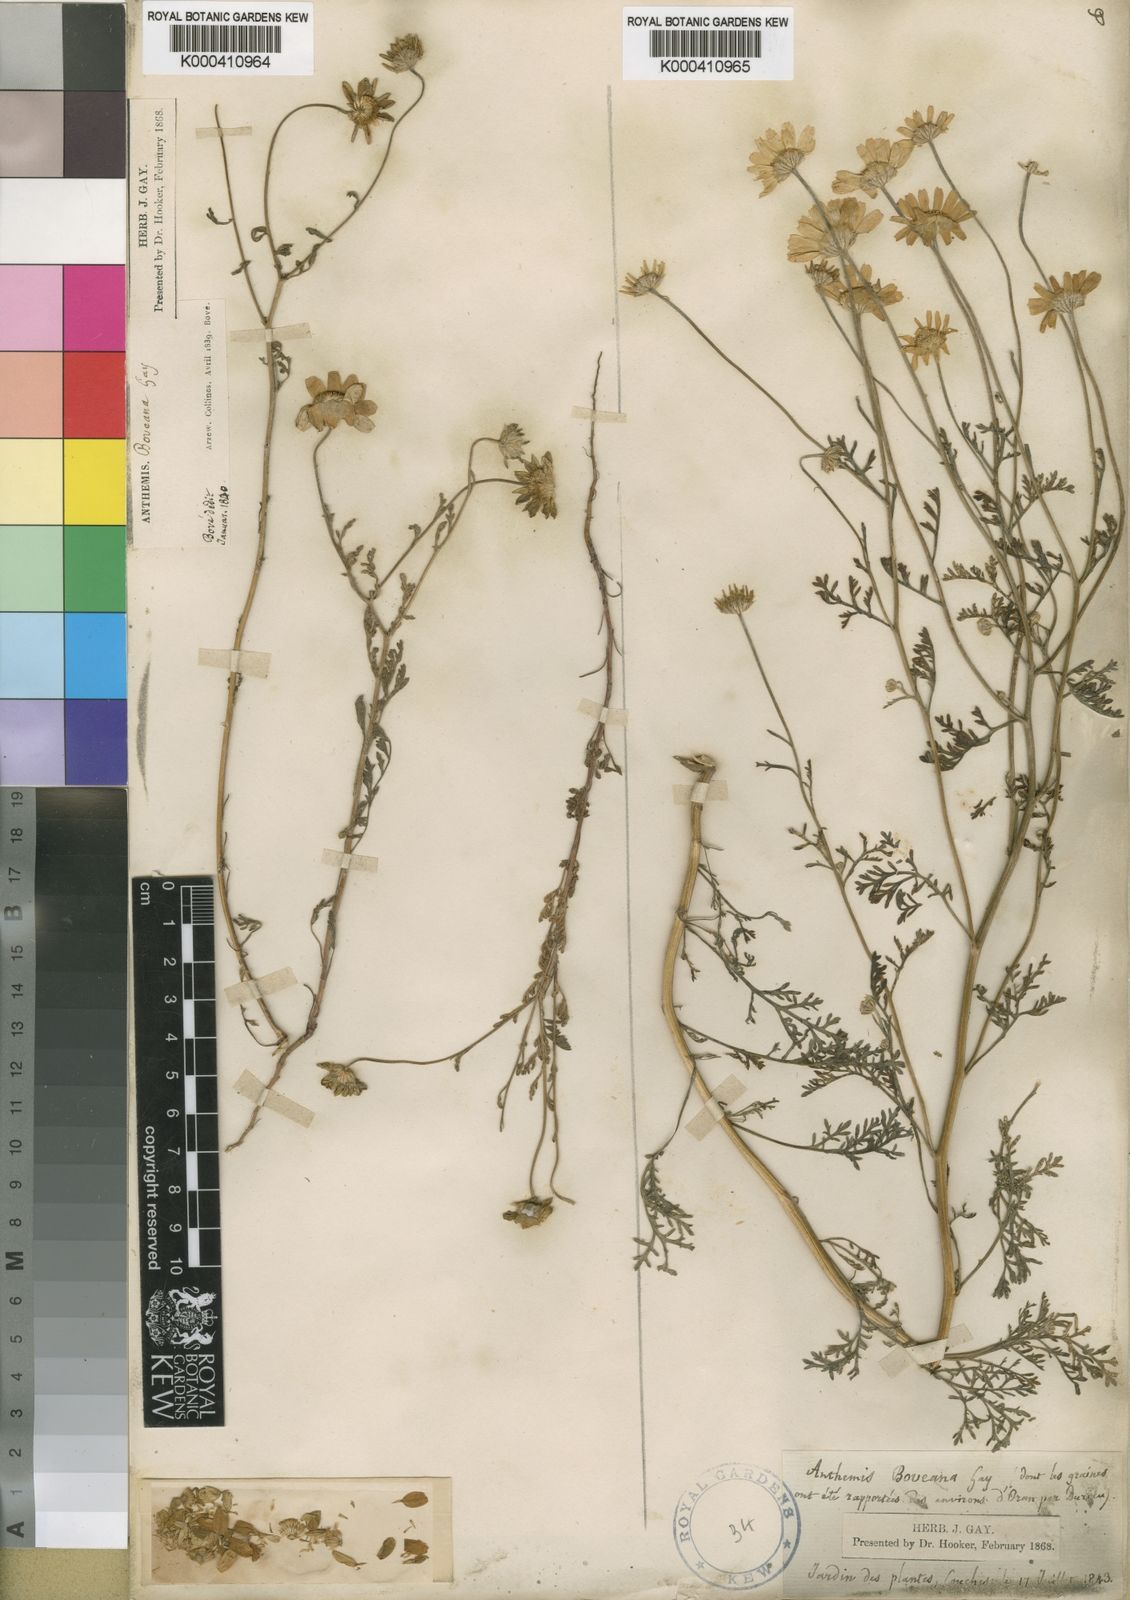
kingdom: Plantae
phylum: Tracheophyta
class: Magnoliopsida
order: Asterales
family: Asteraceae
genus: Anthemis
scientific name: Anthemis boveana
